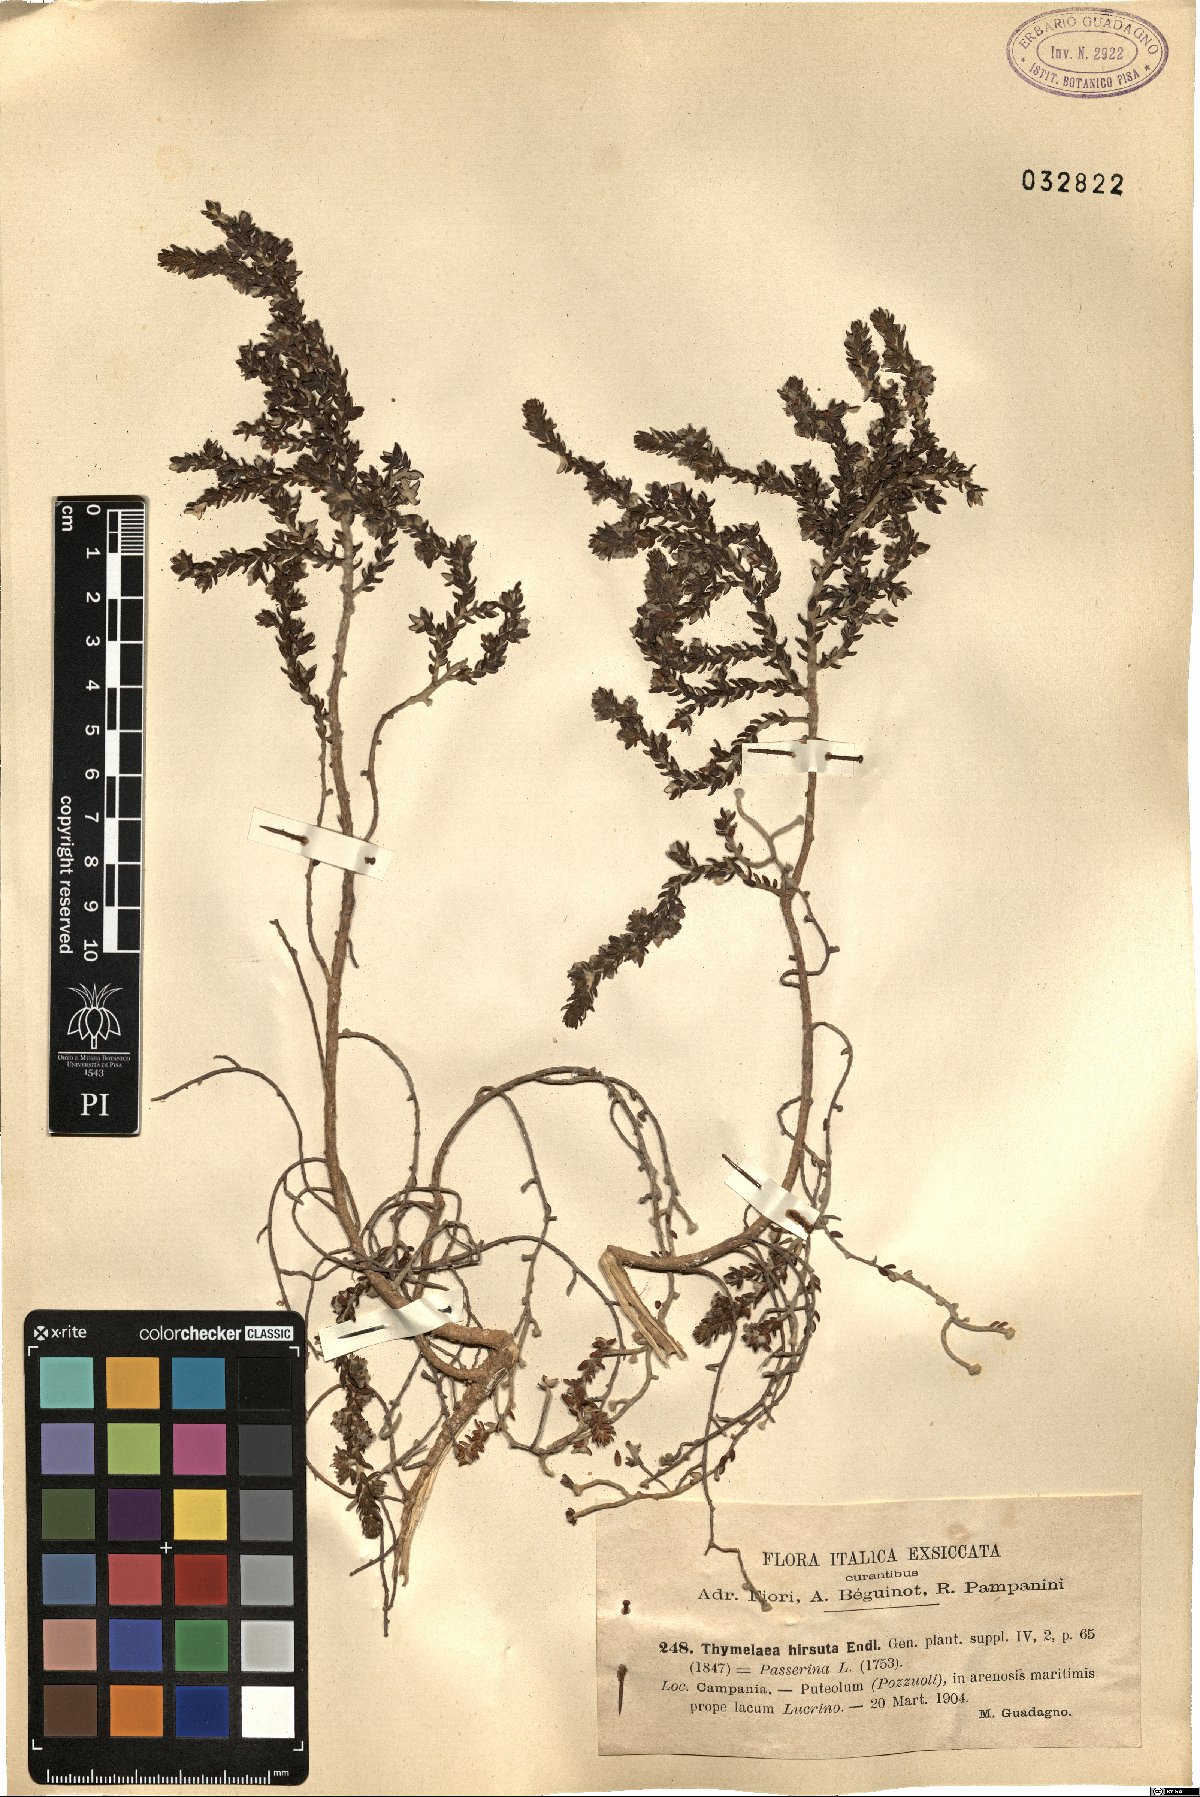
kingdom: Plantae
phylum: Tracheophyta
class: Magnoliopsida
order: Malvales
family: Thymelaeaceae
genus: Thymelaea
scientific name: Thymelaea hirsuta
